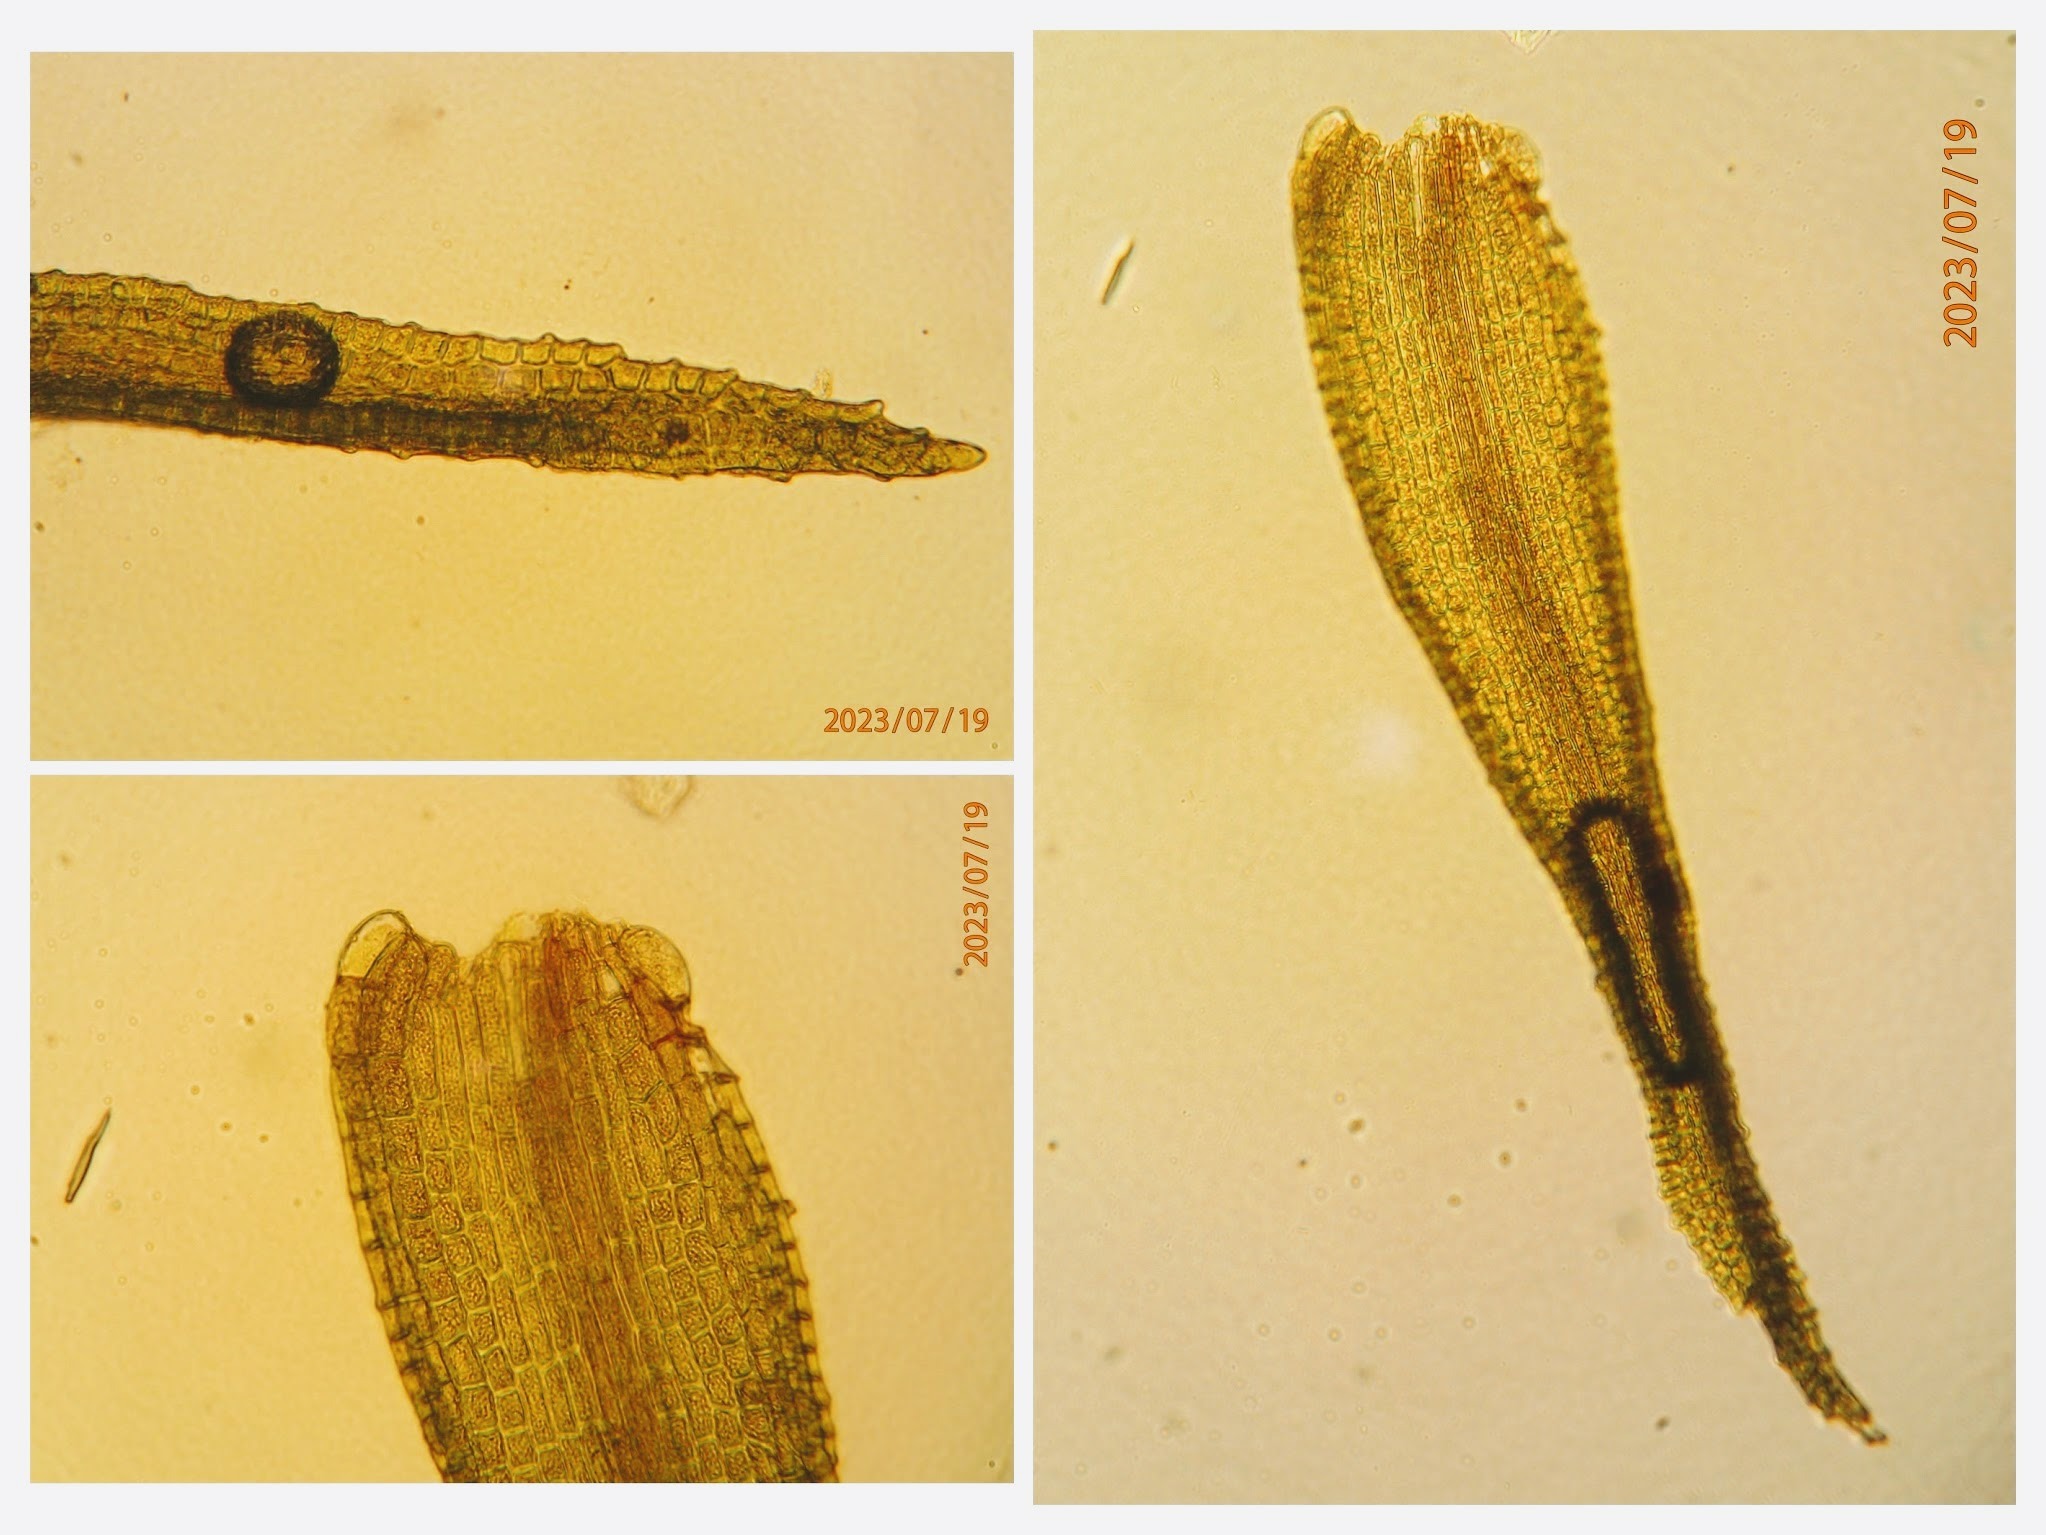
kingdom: Plantae
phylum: Bryophyta
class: Bryopsida
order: Dicranales
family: Dicranaceae
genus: Orthodicranum
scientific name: Orthodicranum montanum
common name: Tæt tyndvinge
